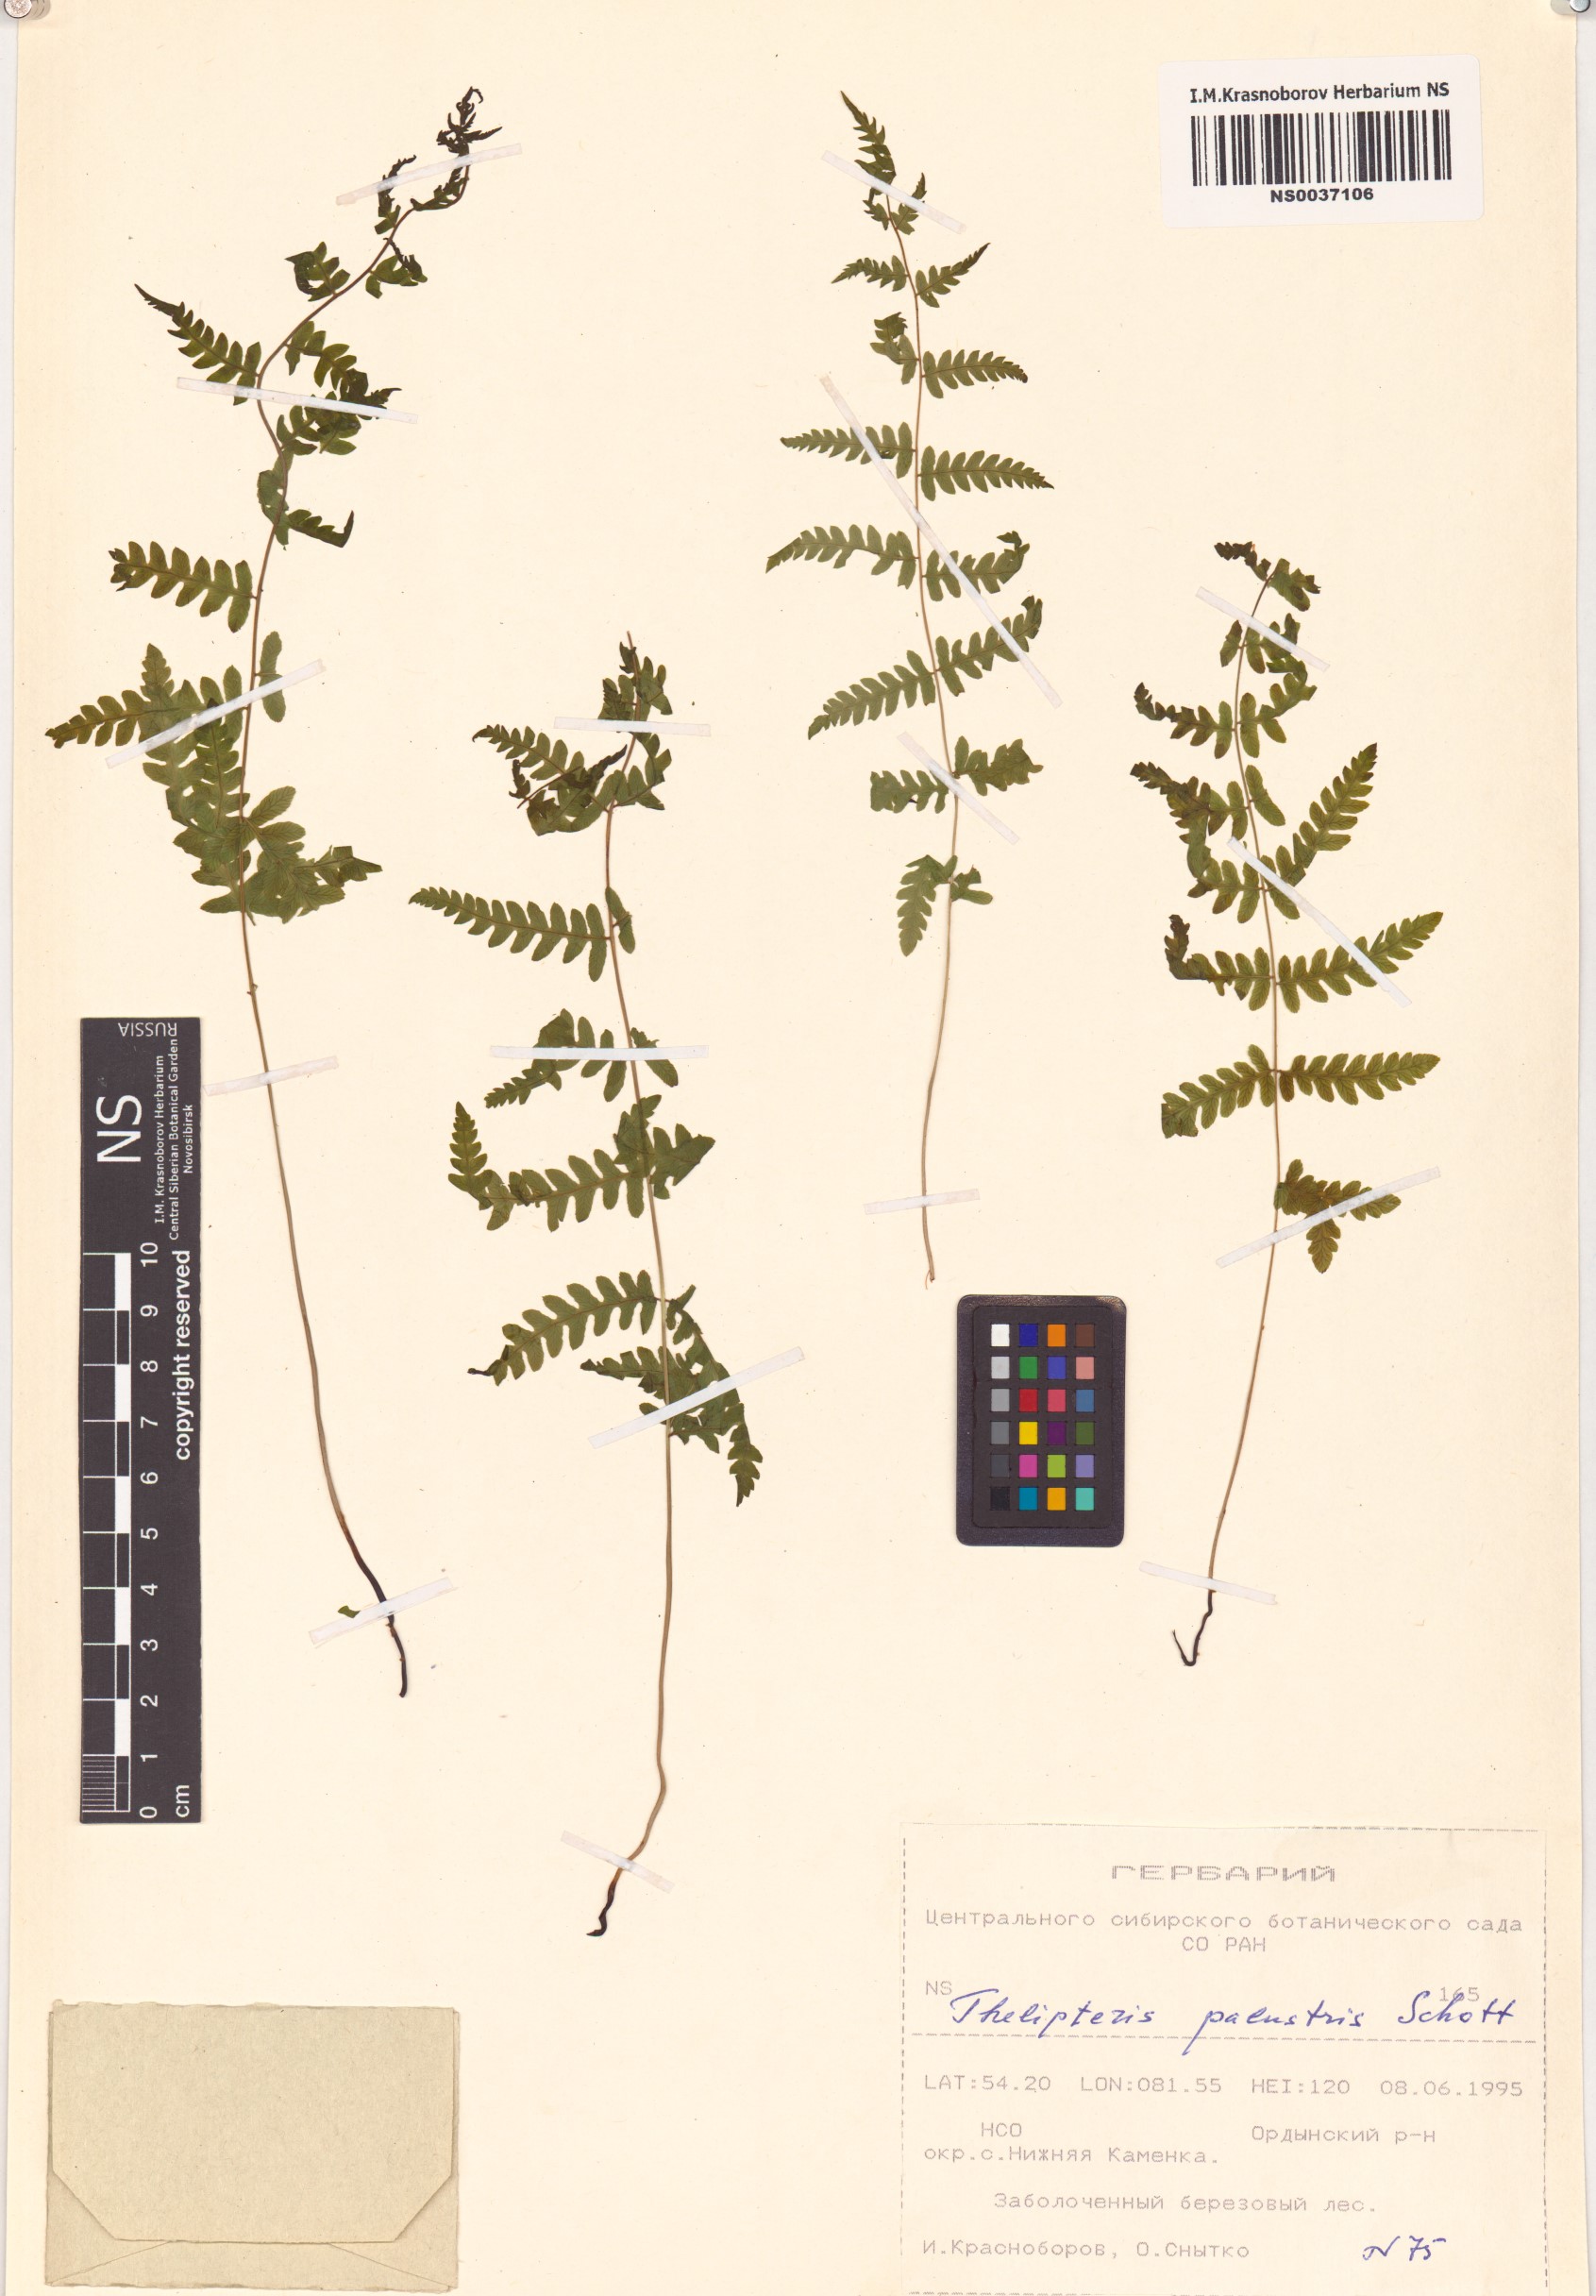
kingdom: Plantae
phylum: Tracheophyta
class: Polypodiopsida
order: Polypodiales
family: Thelypteridaceae
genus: Thelypteris
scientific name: Thelypteris palustris
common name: Marsh fern
